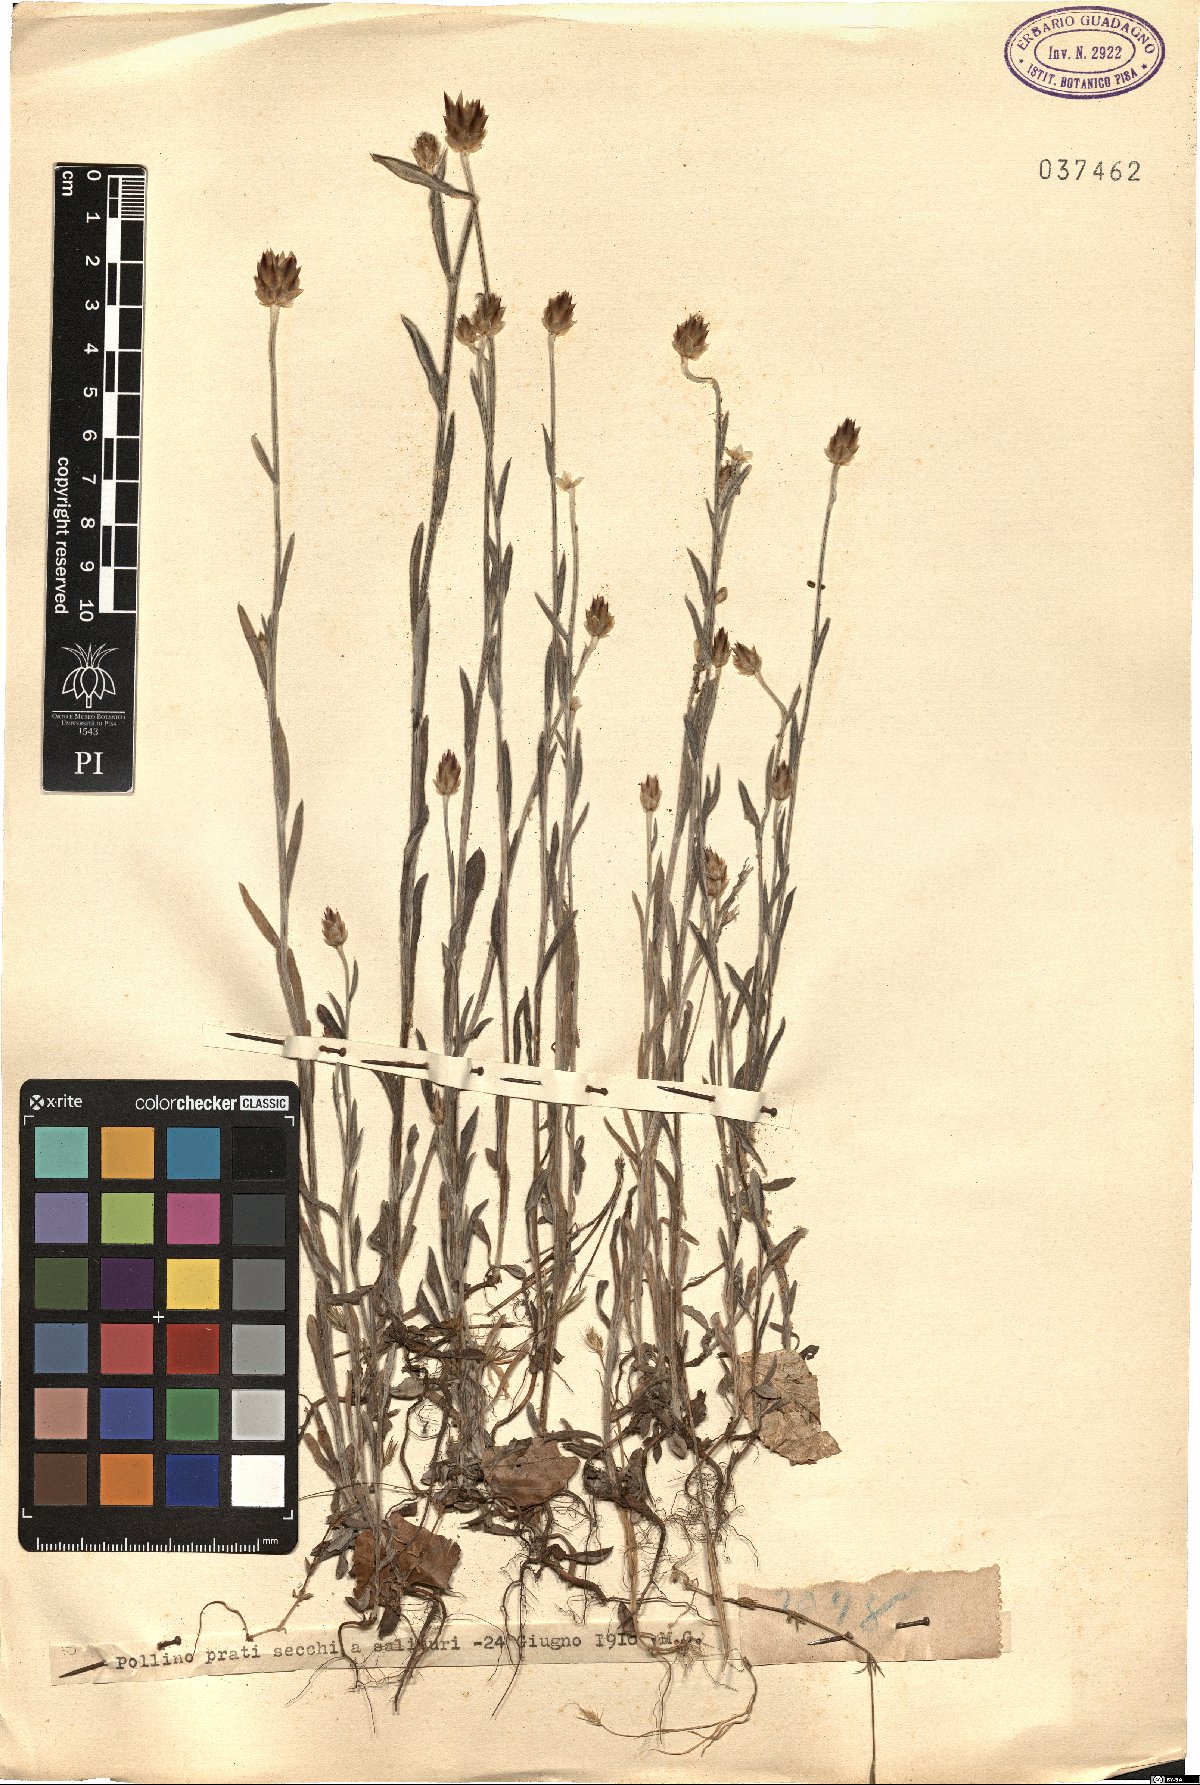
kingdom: Plantae
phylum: Tracheophyta
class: Magnoliopsida
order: Asterales
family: Asteraceae
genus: Xeranthemum
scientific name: Xeranthemum
